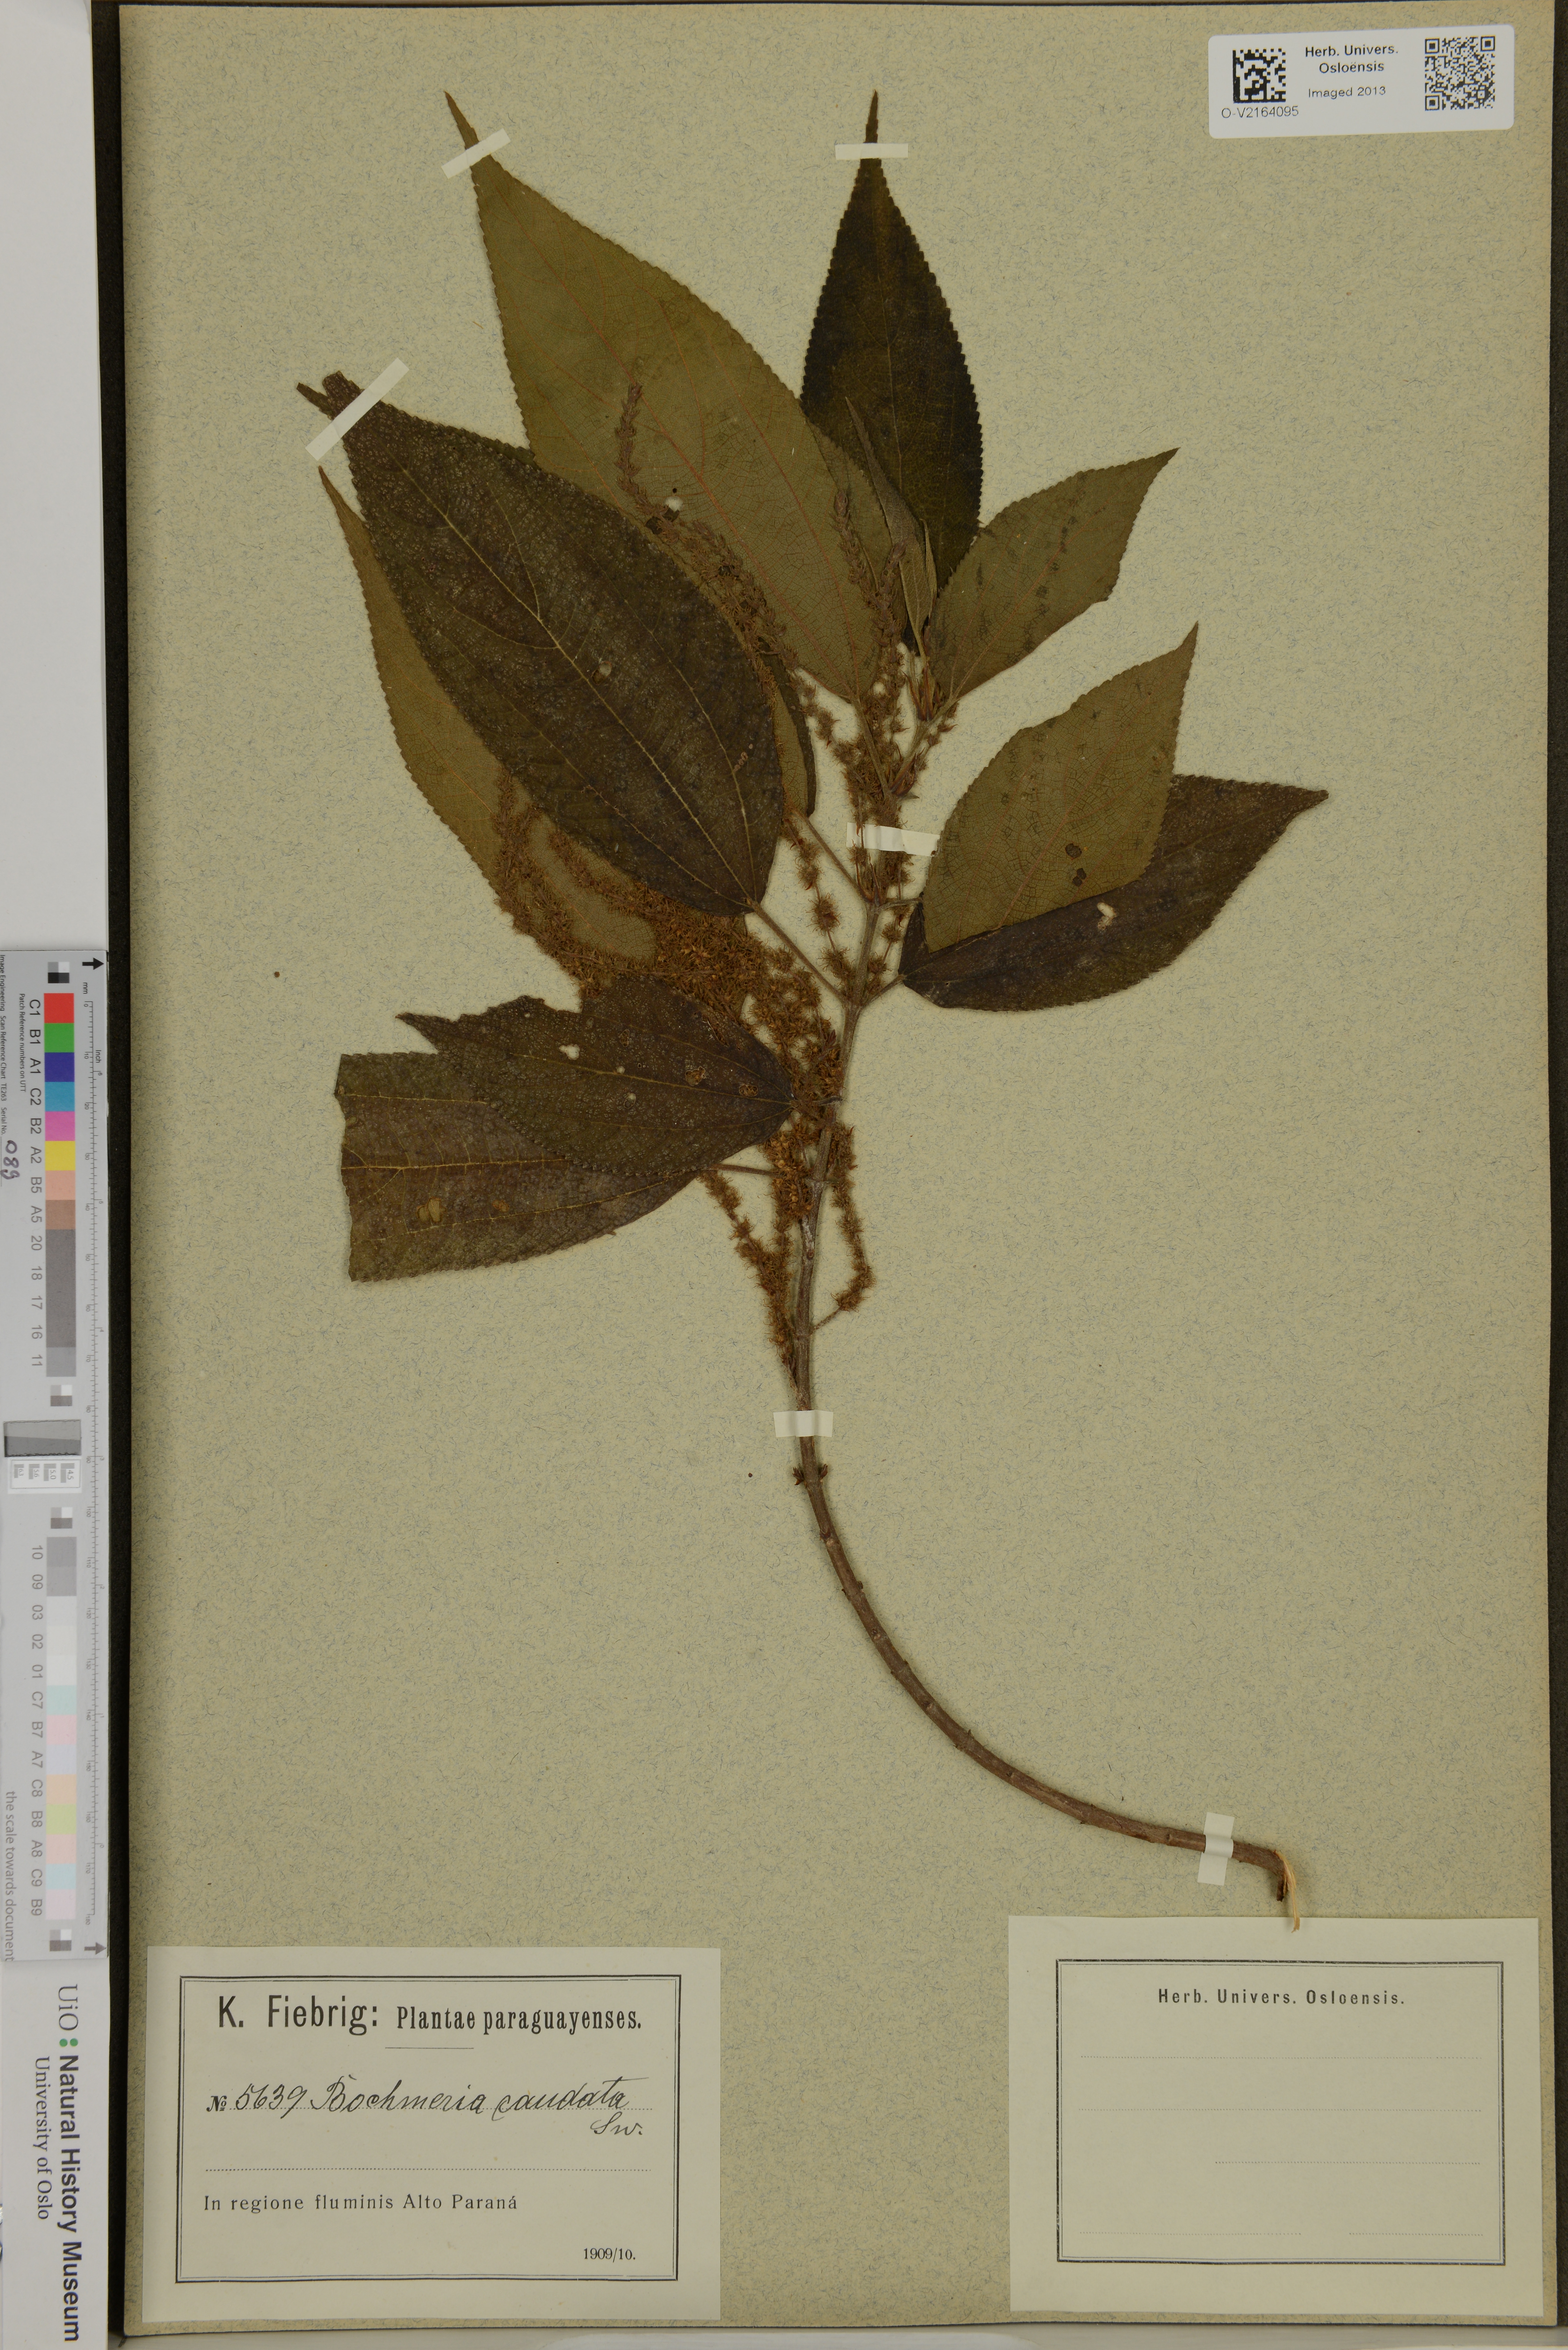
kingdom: Plantae
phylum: Tracheophyta
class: Magnoliopsida
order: Rosales
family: Urticaceae
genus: Boehmeria
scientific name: Boehmeria caudata
